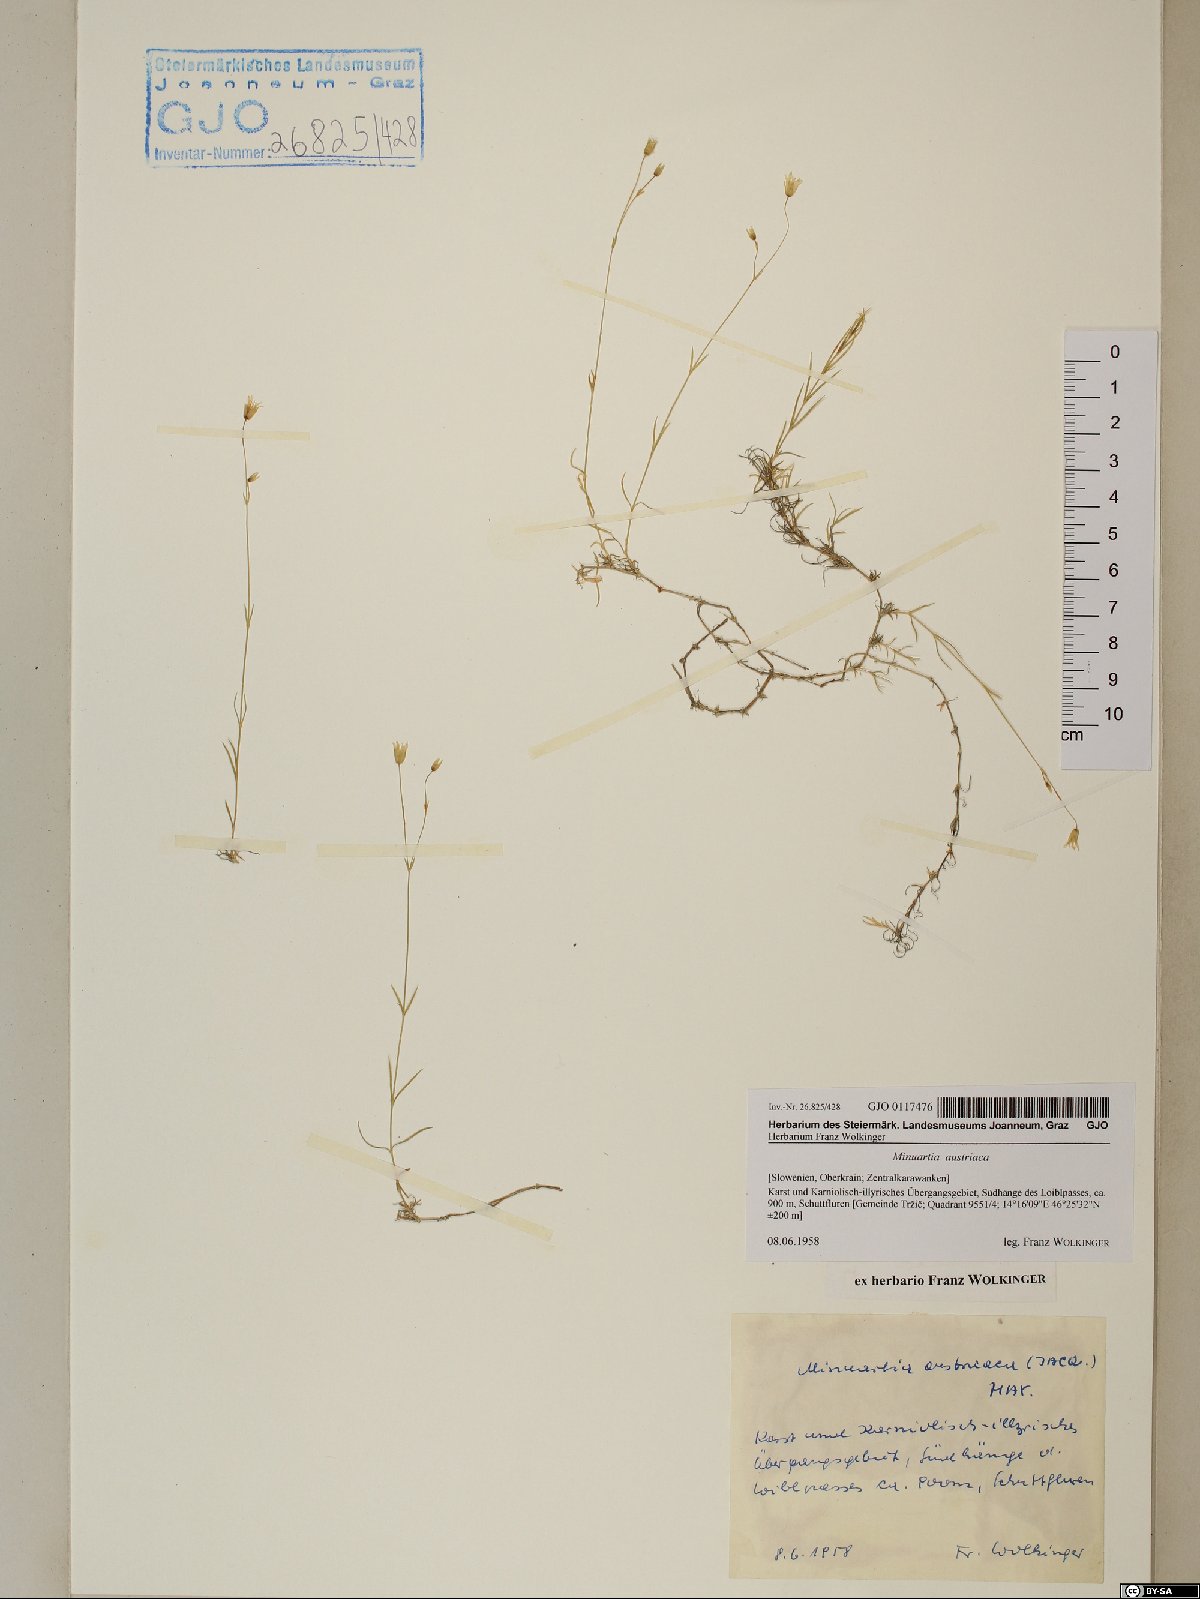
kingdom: Plantae
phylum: Tracheophyta
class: Magnoliopsida
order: Caryophyllales
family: Caryophyllaceae
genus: Sabulina
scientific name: Sabulina austriaca
